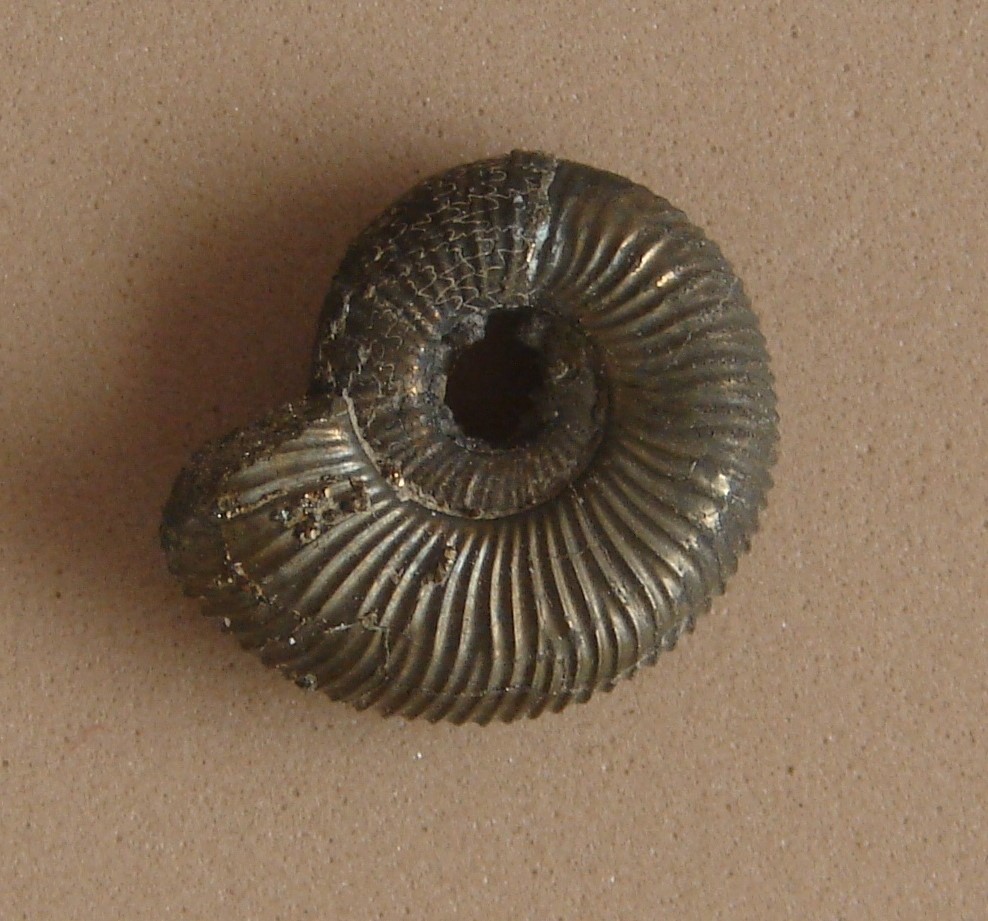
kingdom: Animalia
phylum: Mollusca
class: Cephalopoda
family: Dactylioceratidae
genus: Dactylioceras
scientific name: Dactylioceras
